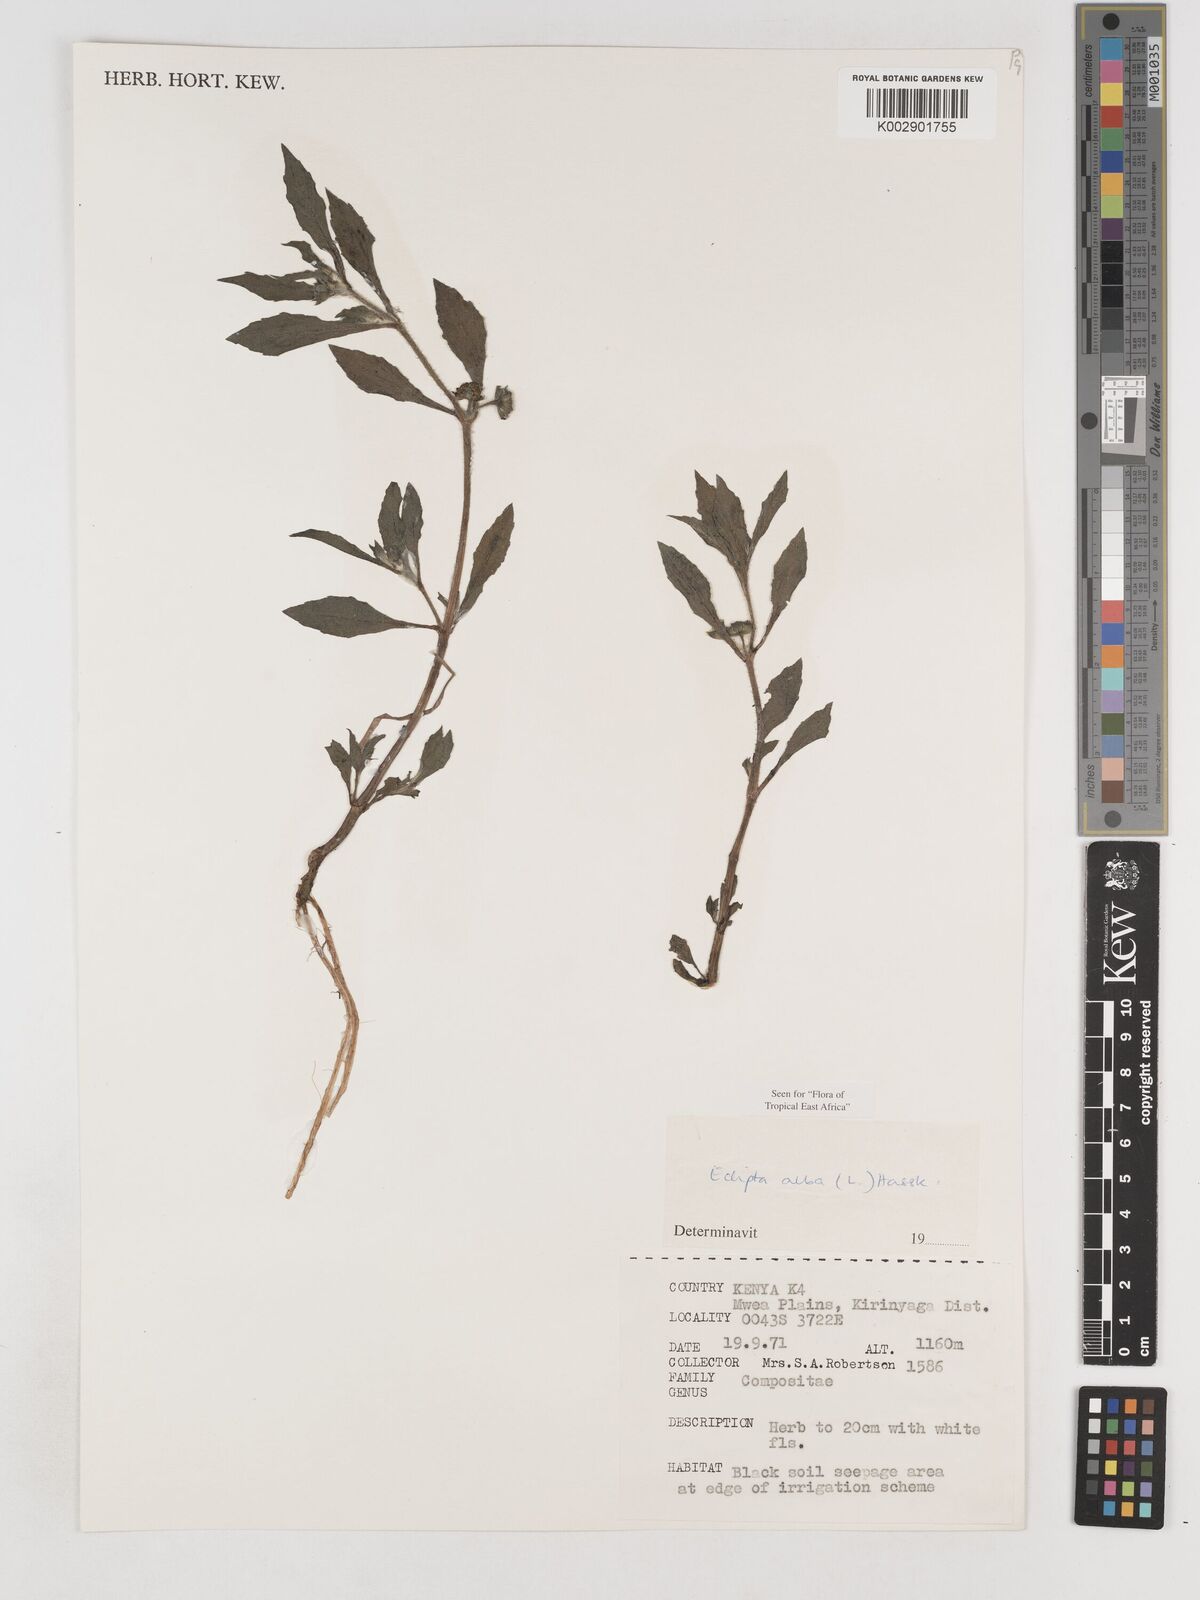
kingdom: Plantae
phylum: Tracheophyta
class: Magnoliopsida
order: Asterales
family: Asteraceae
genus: Eclipta
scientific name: Eclipta prostrata
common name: False daisy
